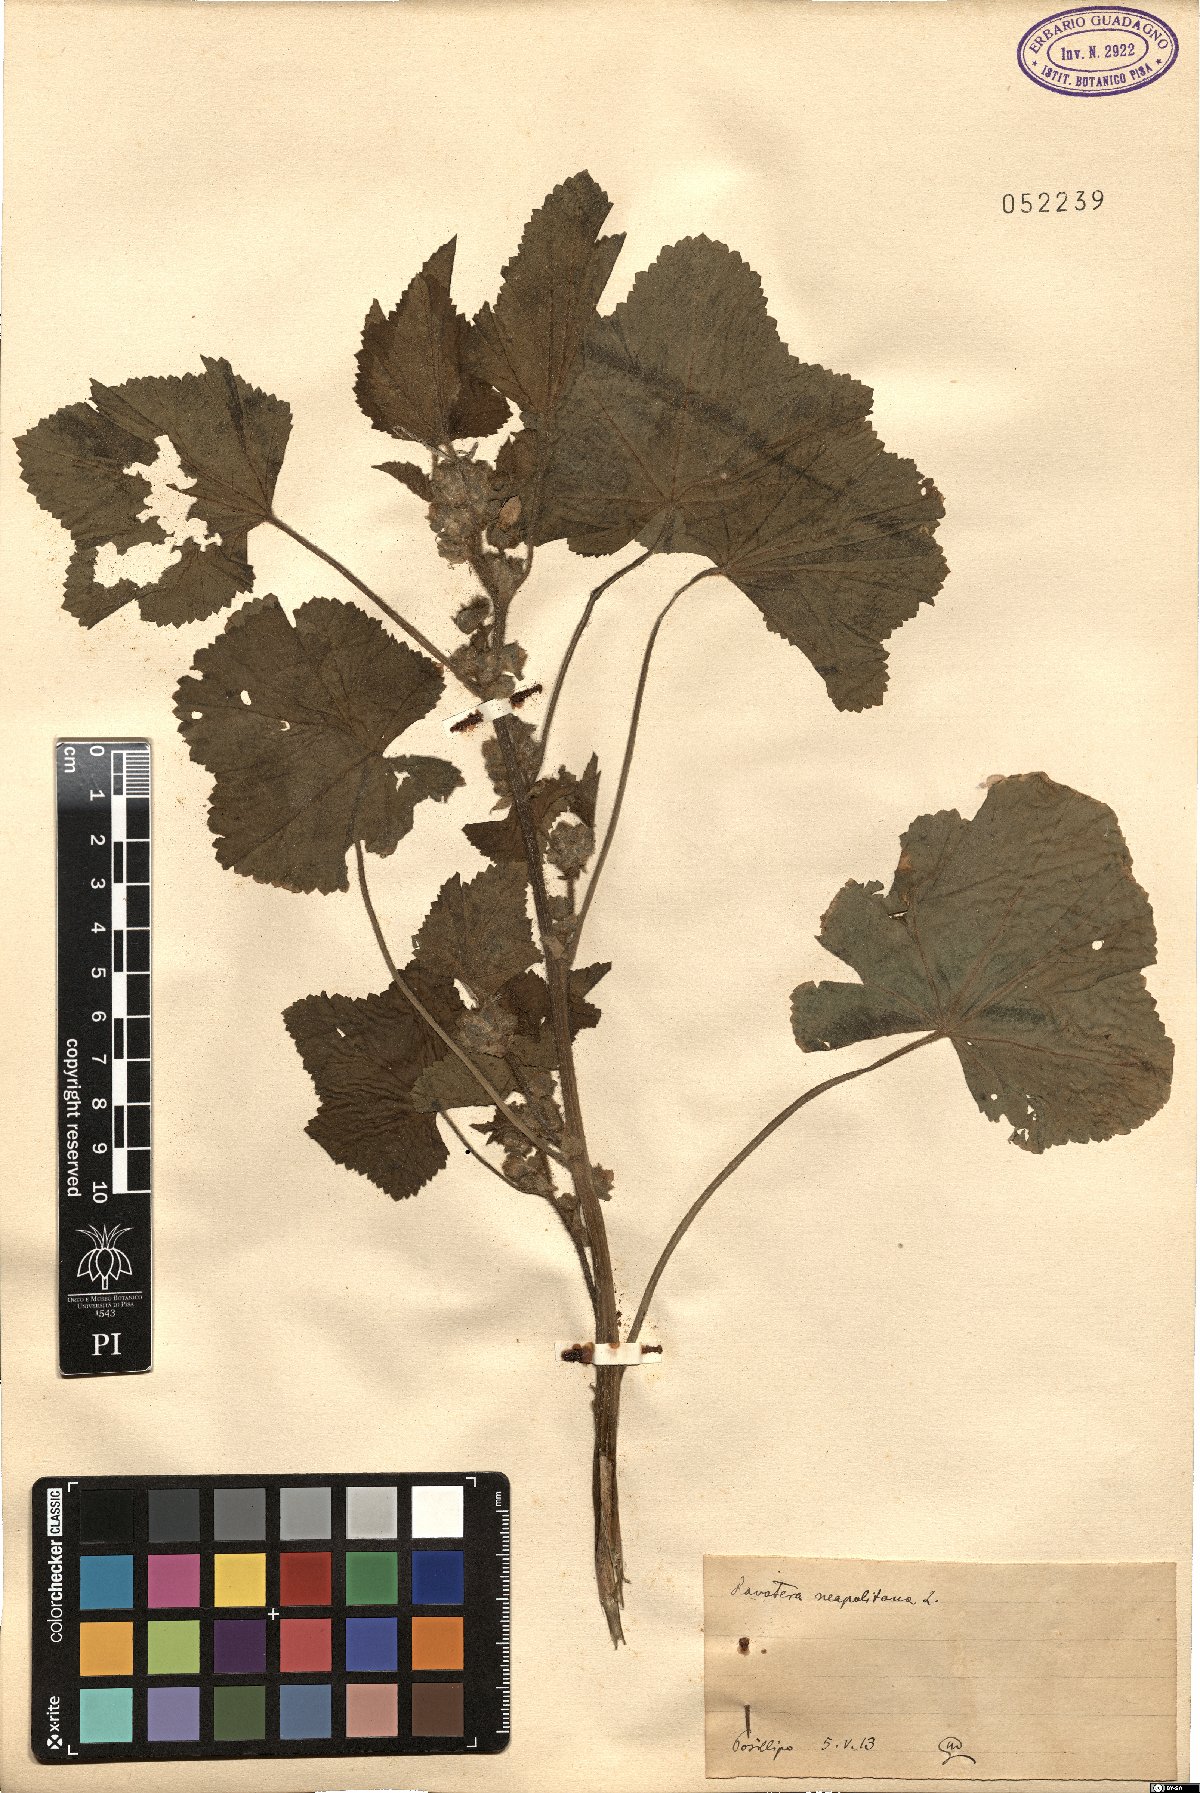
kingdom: Plantae
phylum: Tracheophyta
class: Magnoliopsida
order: Malvales
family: Malvaceae
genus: Malva
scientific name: Malva multiflora
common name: Cheeseweed
